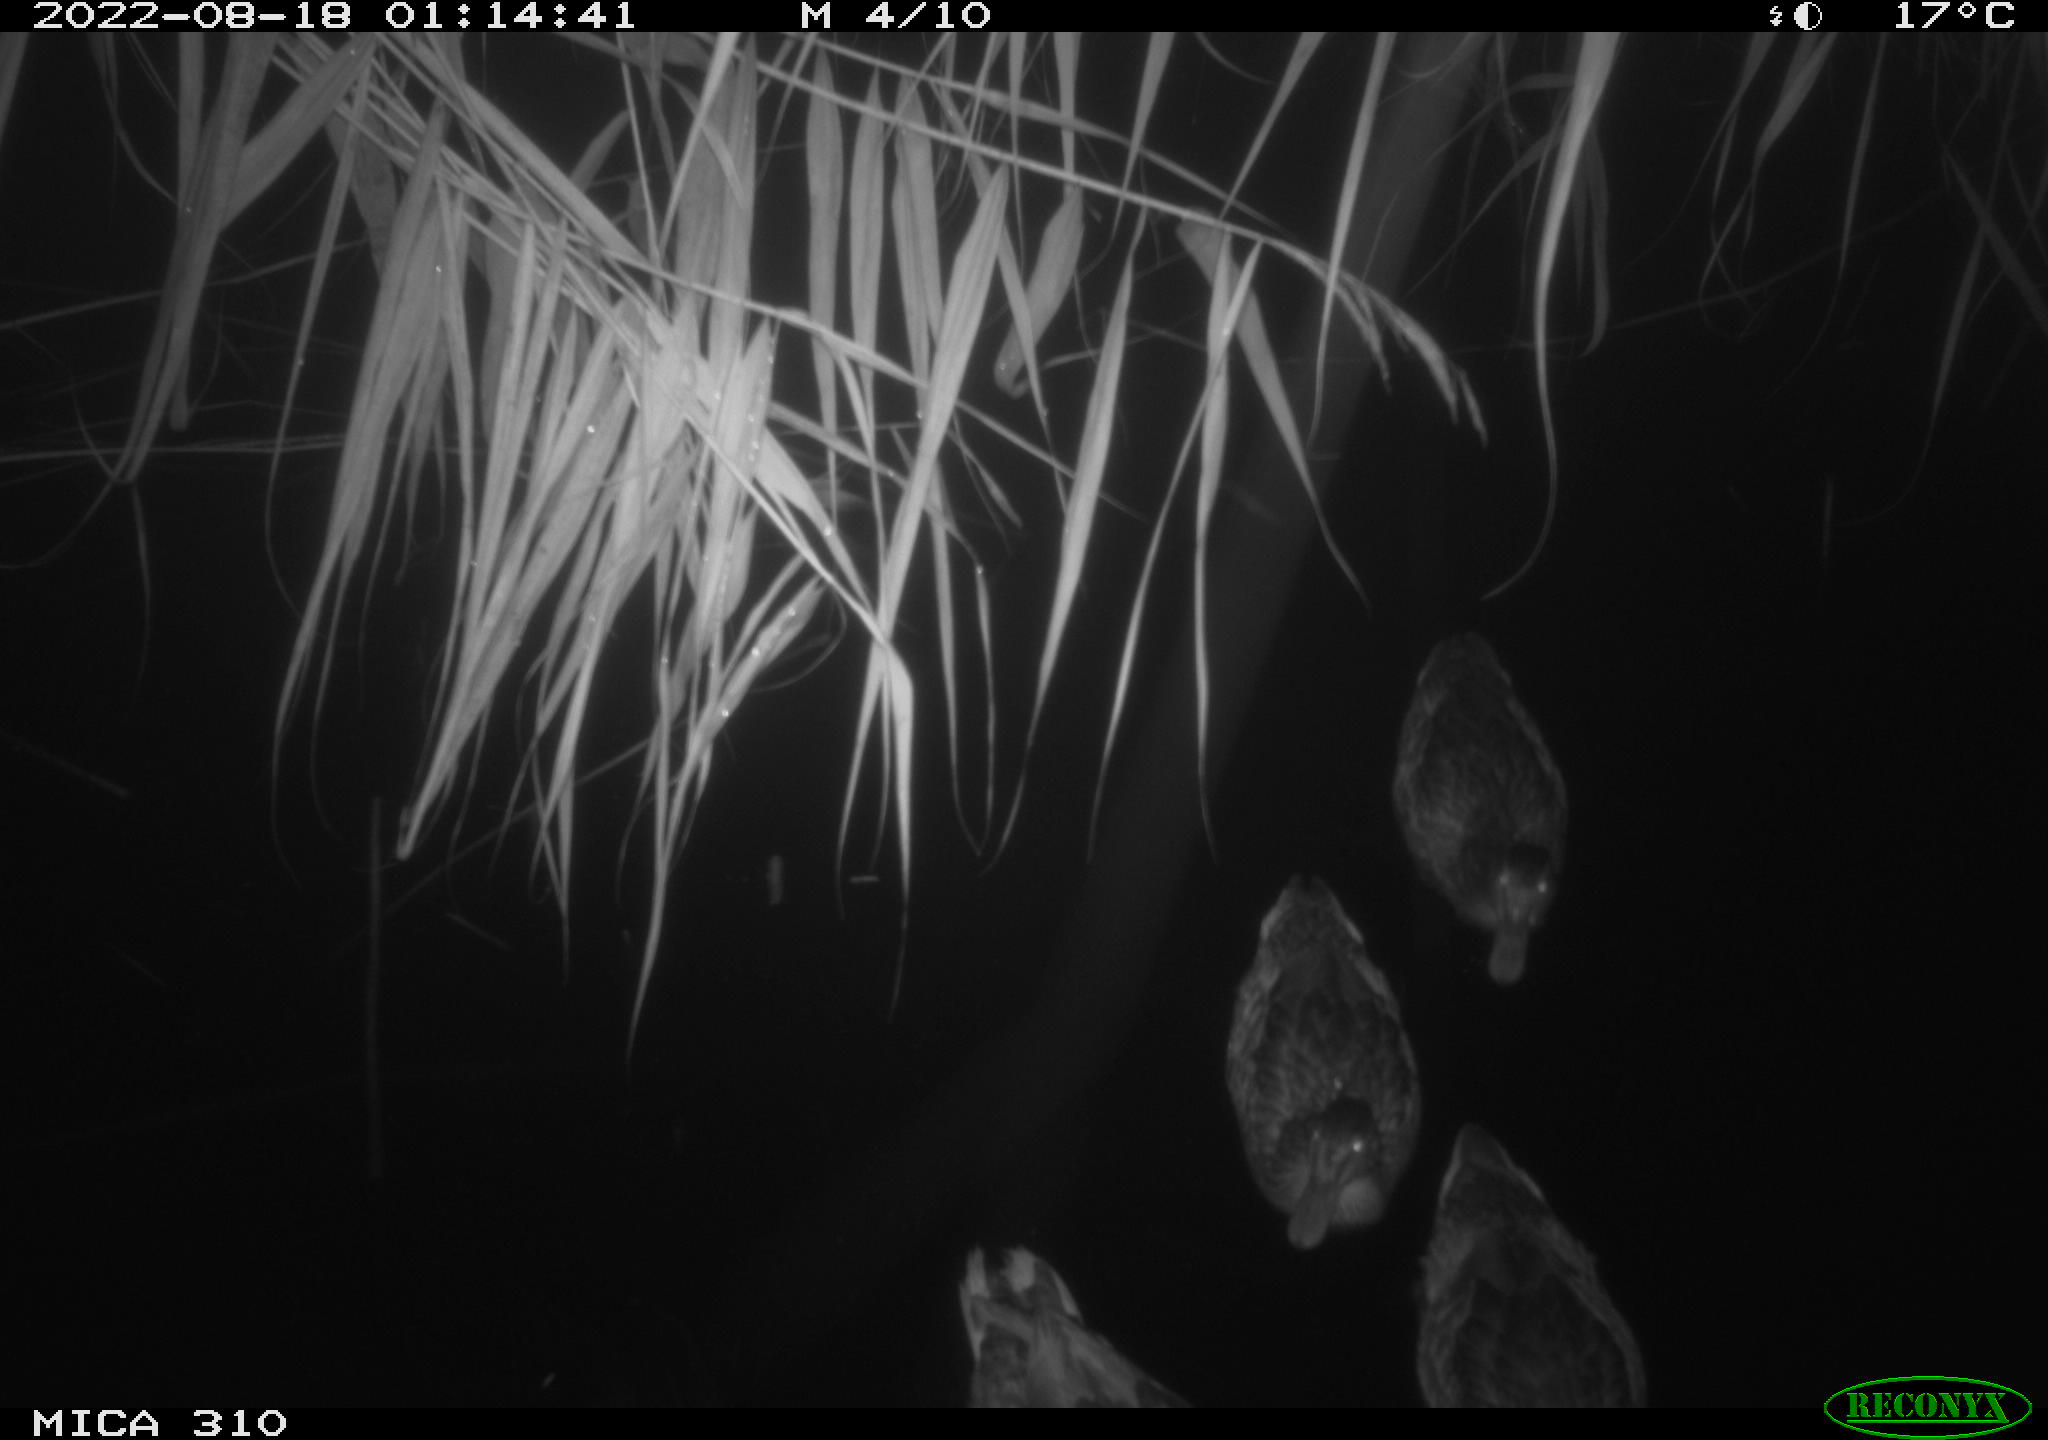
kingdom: Animalia
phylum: Chordata
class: Aves
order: Anseriformes
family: Anatidae
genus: Anas
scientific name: Anas platyrhynchos
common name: Mallard
